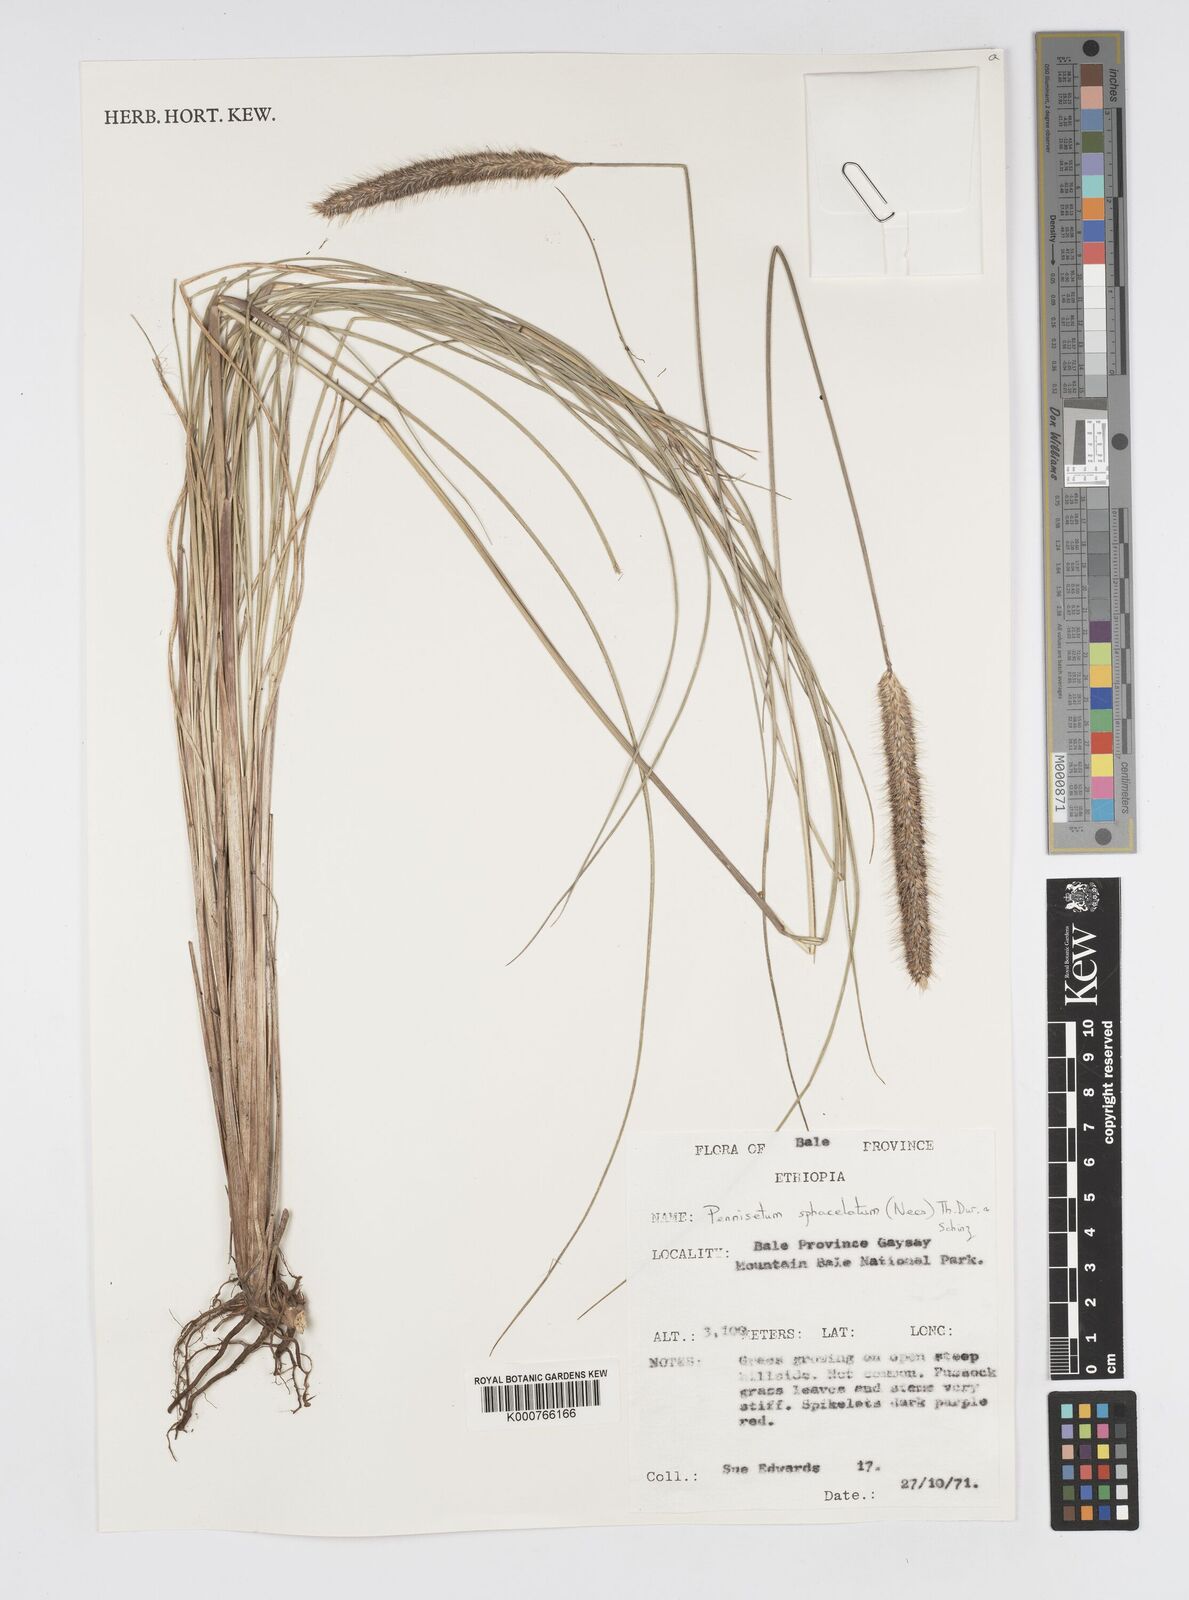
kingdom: Plantae
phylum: Tracheophyta
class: Liliopsida
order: Poales
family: Poaceae
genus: Cenchrus
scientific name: Cenchrus sphacelatus
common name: Bulgras
